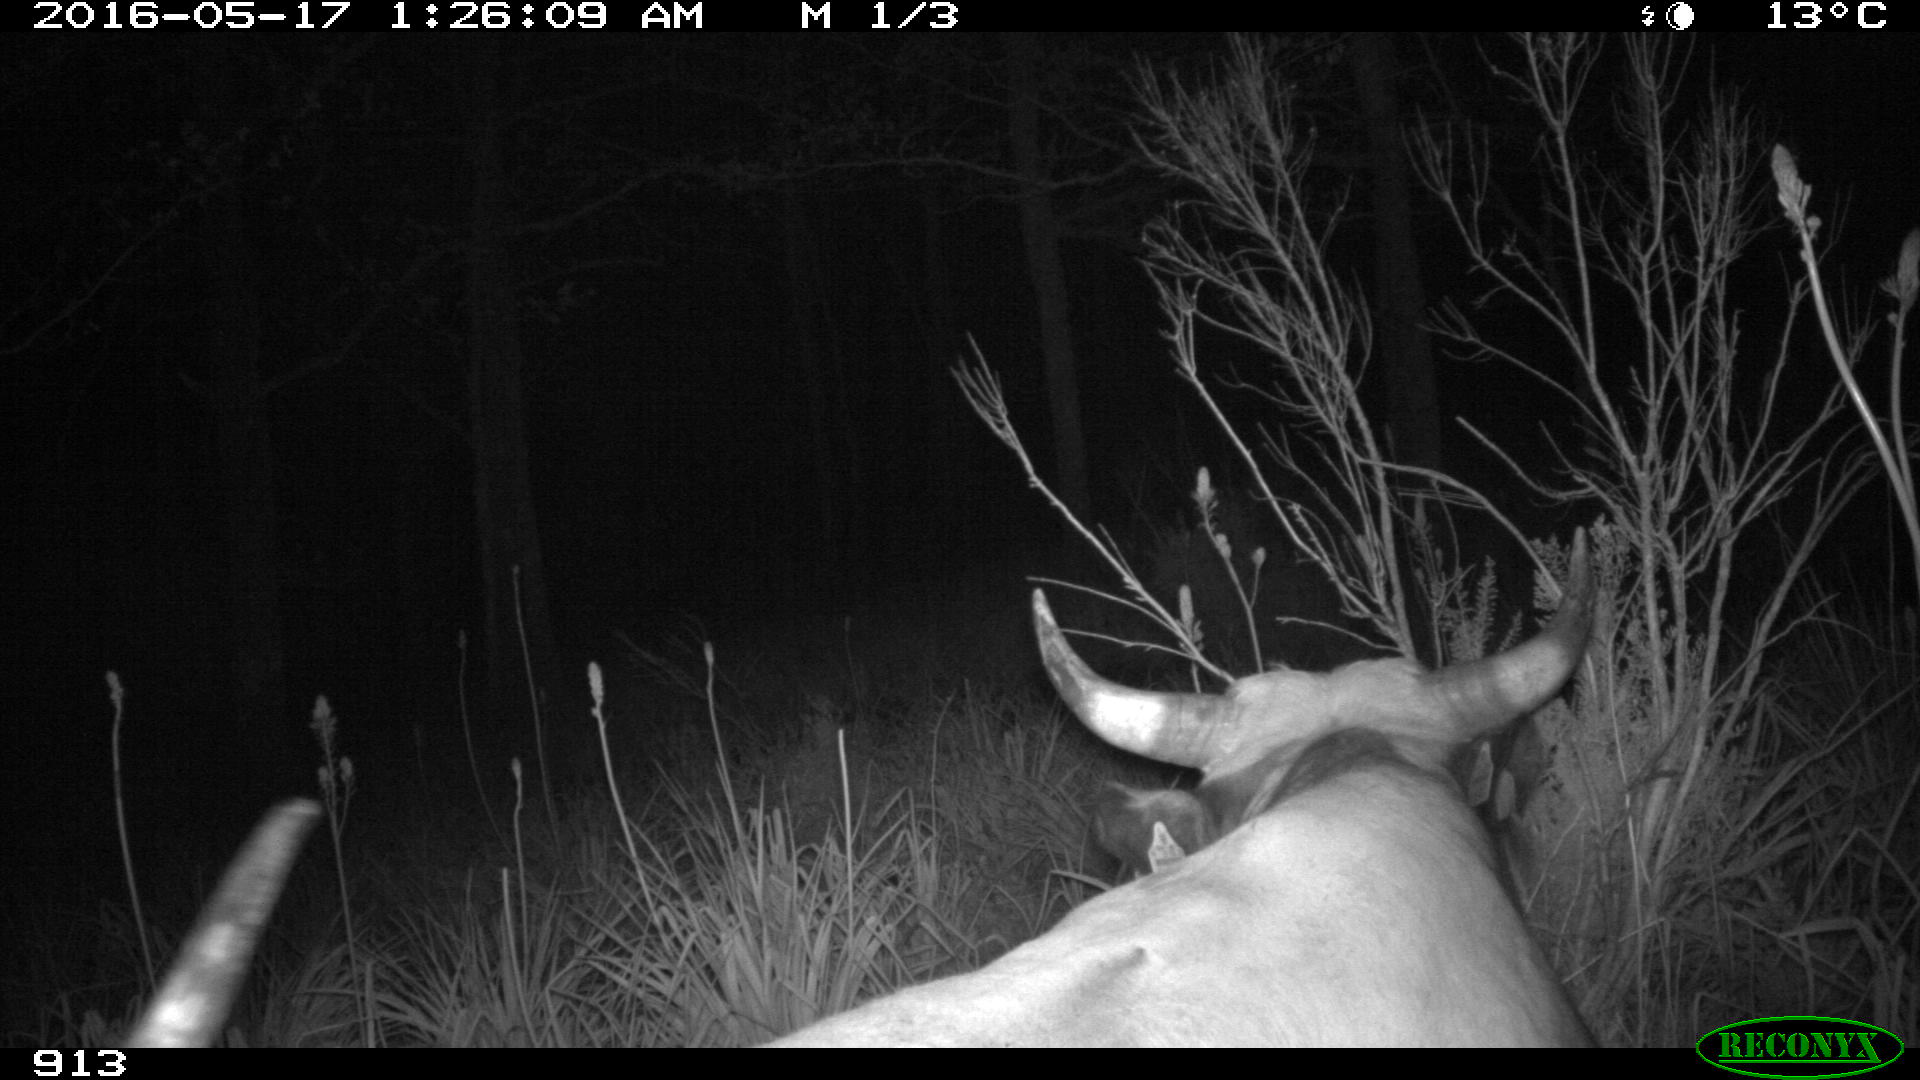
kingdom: Animalia
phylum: Chordata
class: Mammalia
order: Artiodactyla
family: Bovidae
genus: Bos
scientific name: Bos taurus
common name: Domesticated cattle
